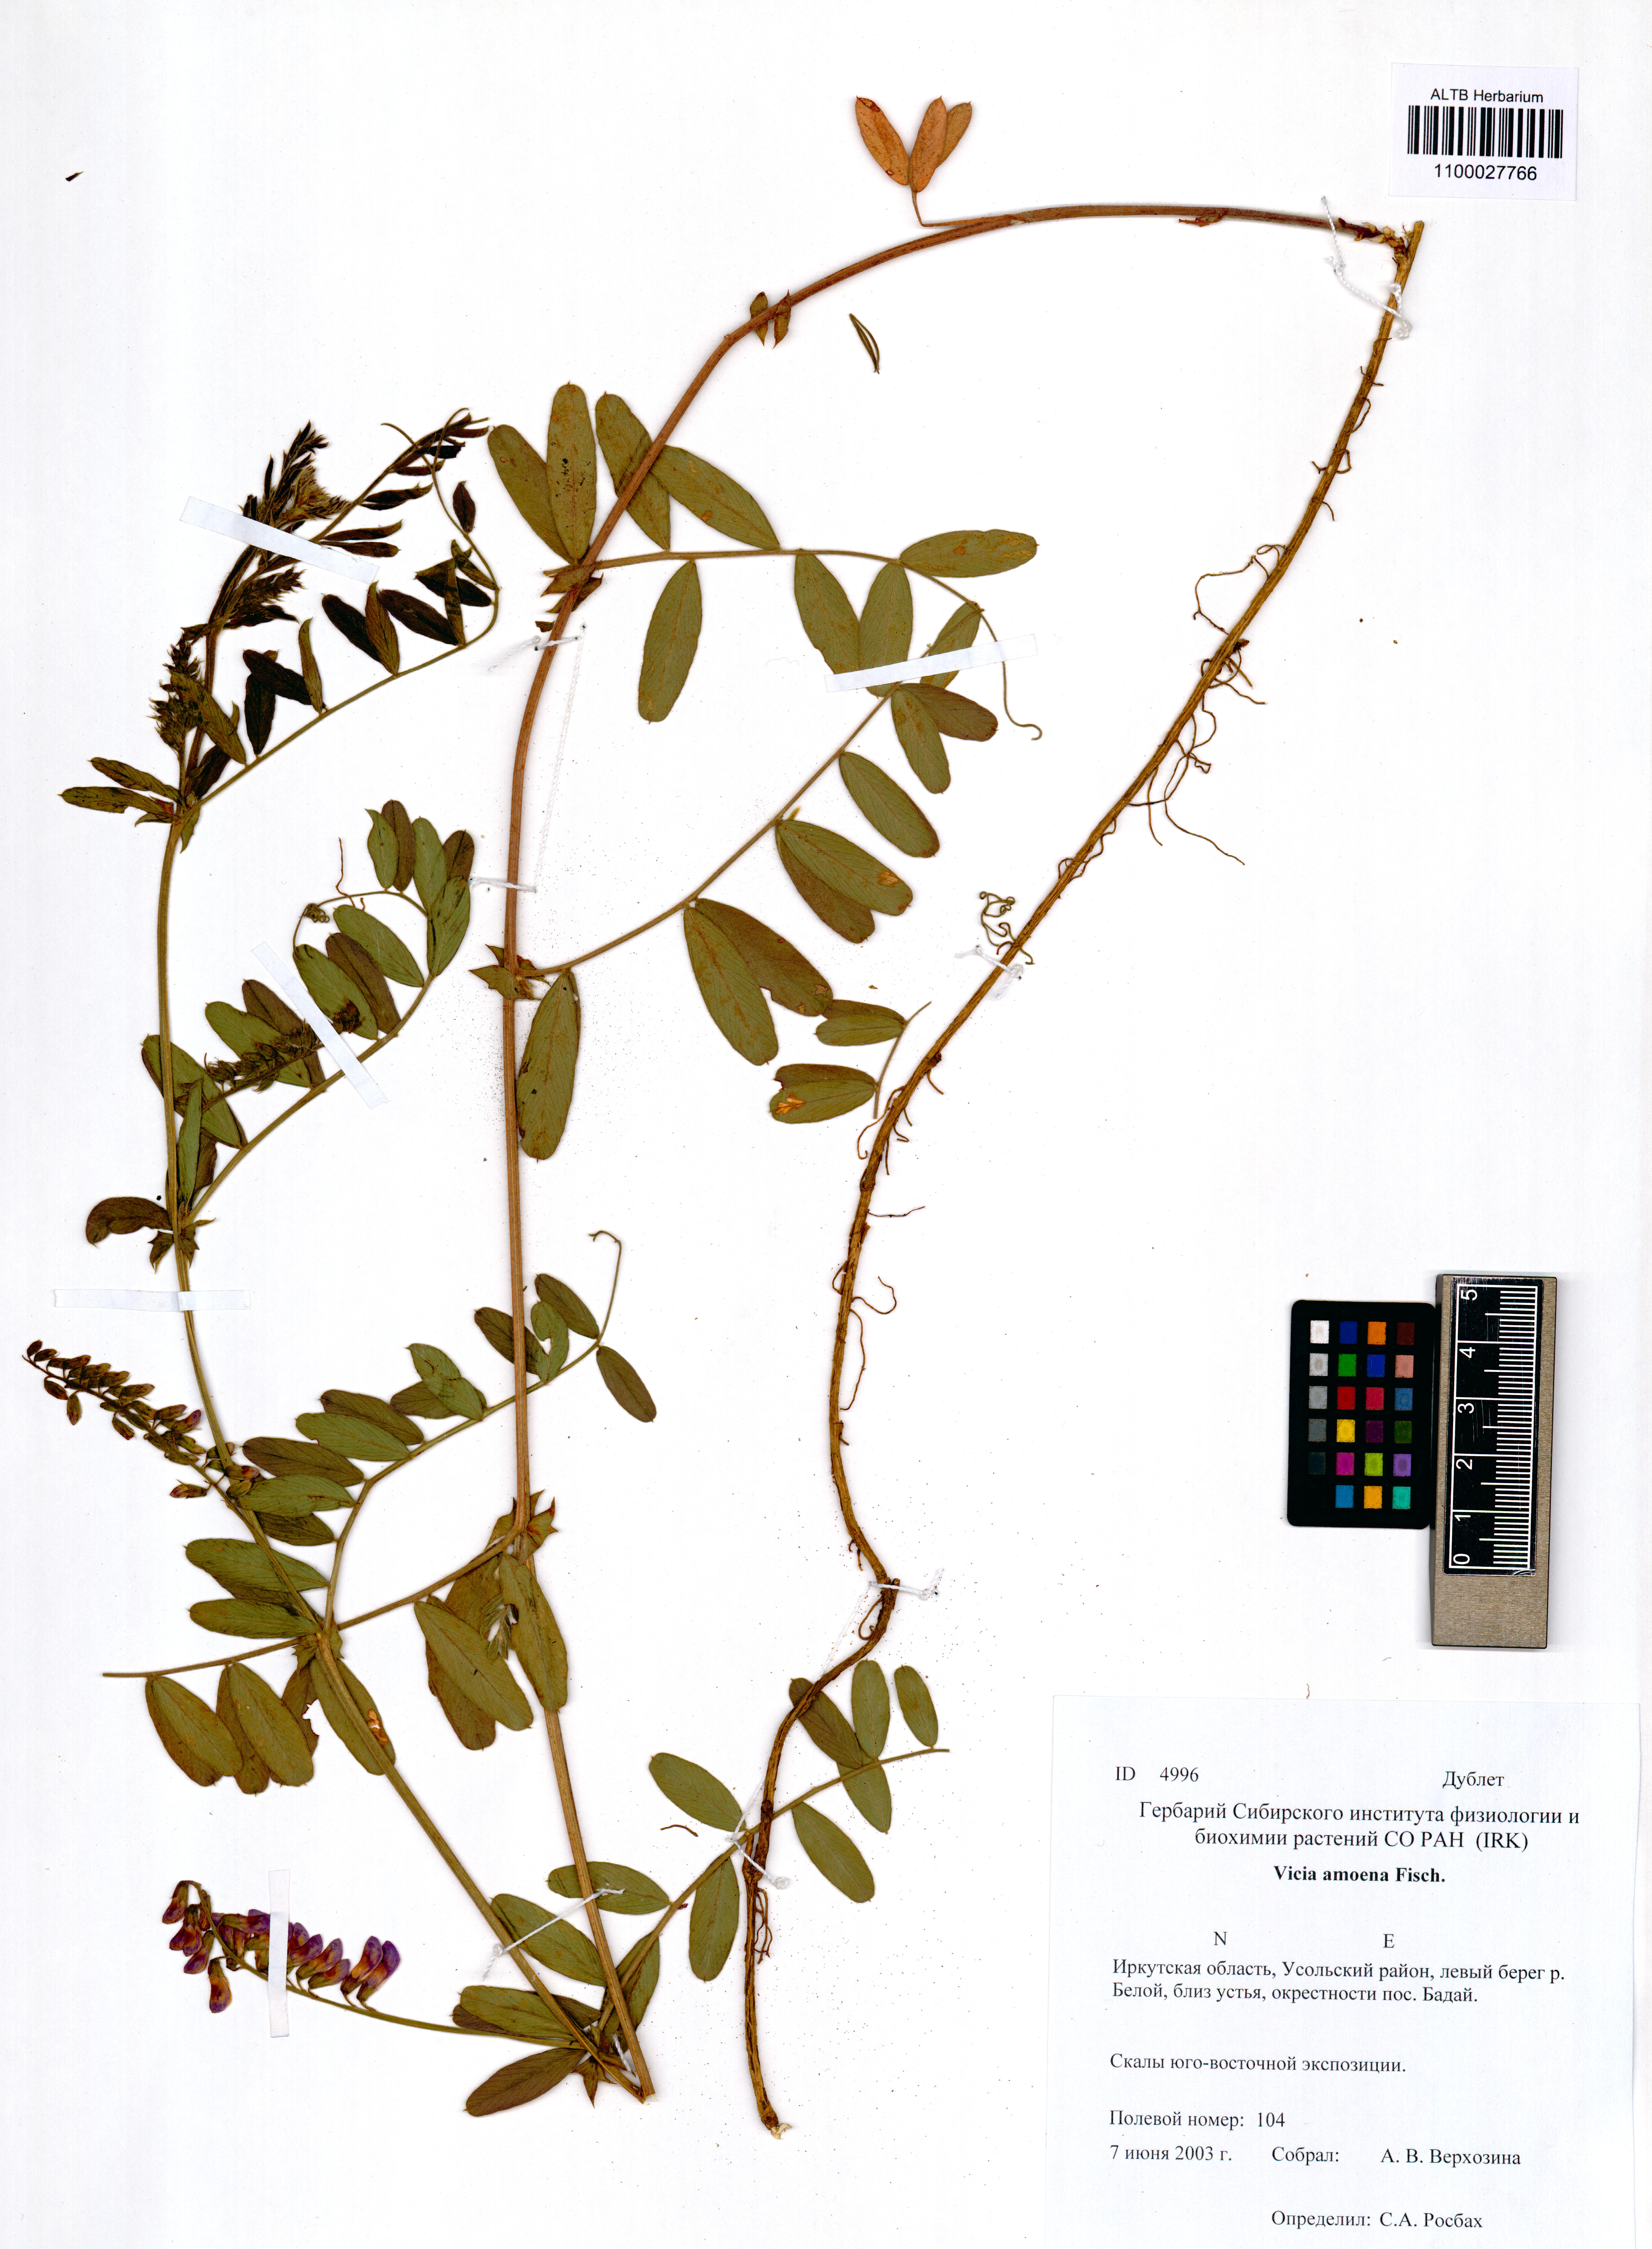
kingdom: Plantae
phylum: Tracheophyta
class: Magnoliopsida
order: Fabales
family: Fabaceae
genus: Vicia
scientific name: Vicia amoena
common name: Cheder ebs
